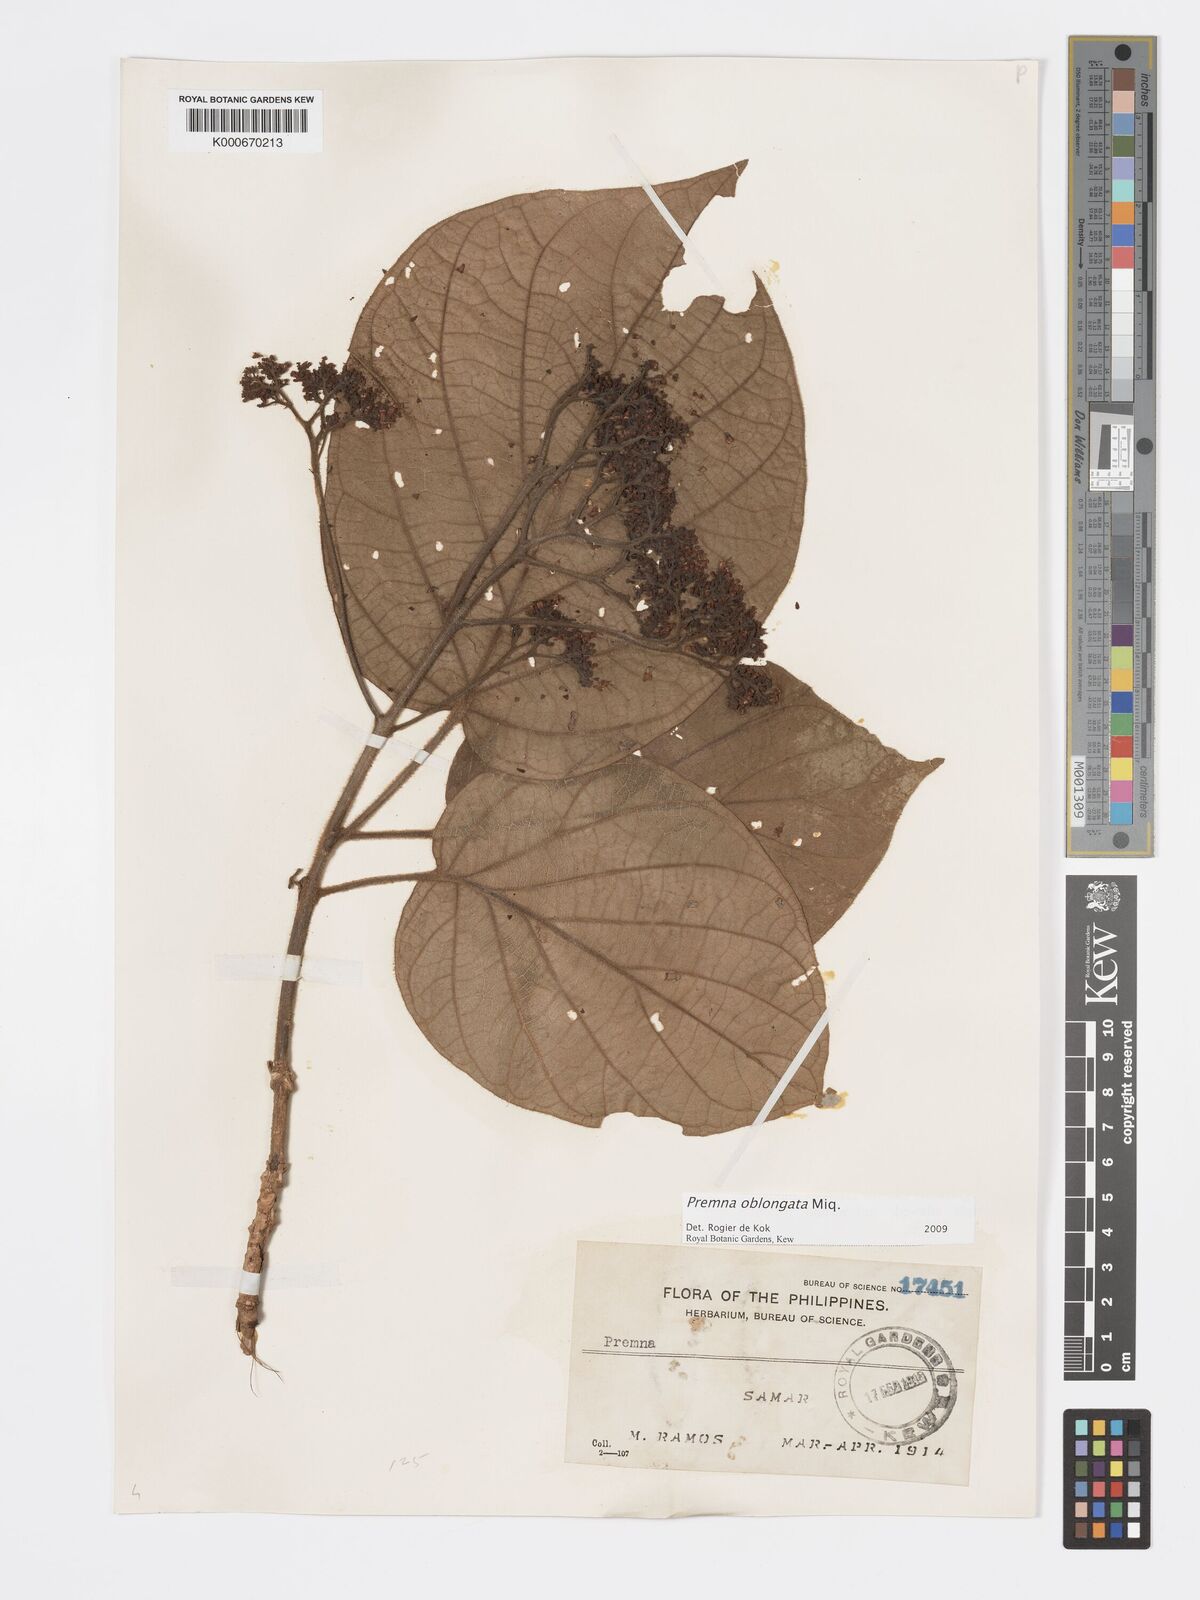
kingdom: Plantae
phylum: Tracheophyta
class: Magnoliopsida
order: Lamiales
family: Lamiaceae
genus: Premna
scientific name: Premna oblongata
